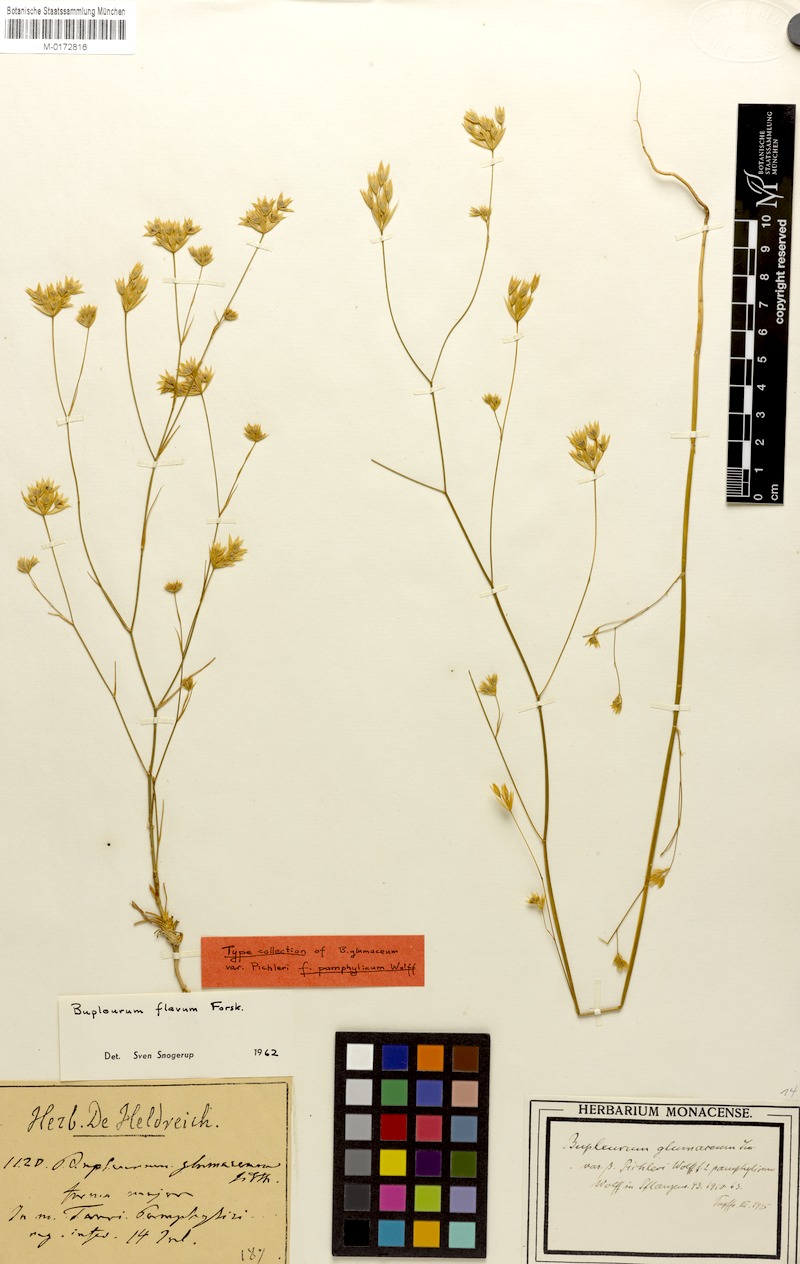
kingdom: Plantae
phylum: Tracheophyta
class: Magnoliopsida
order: Apiales
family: Apiaceae
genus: Bupleurum
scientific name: Bupleurum flavum
